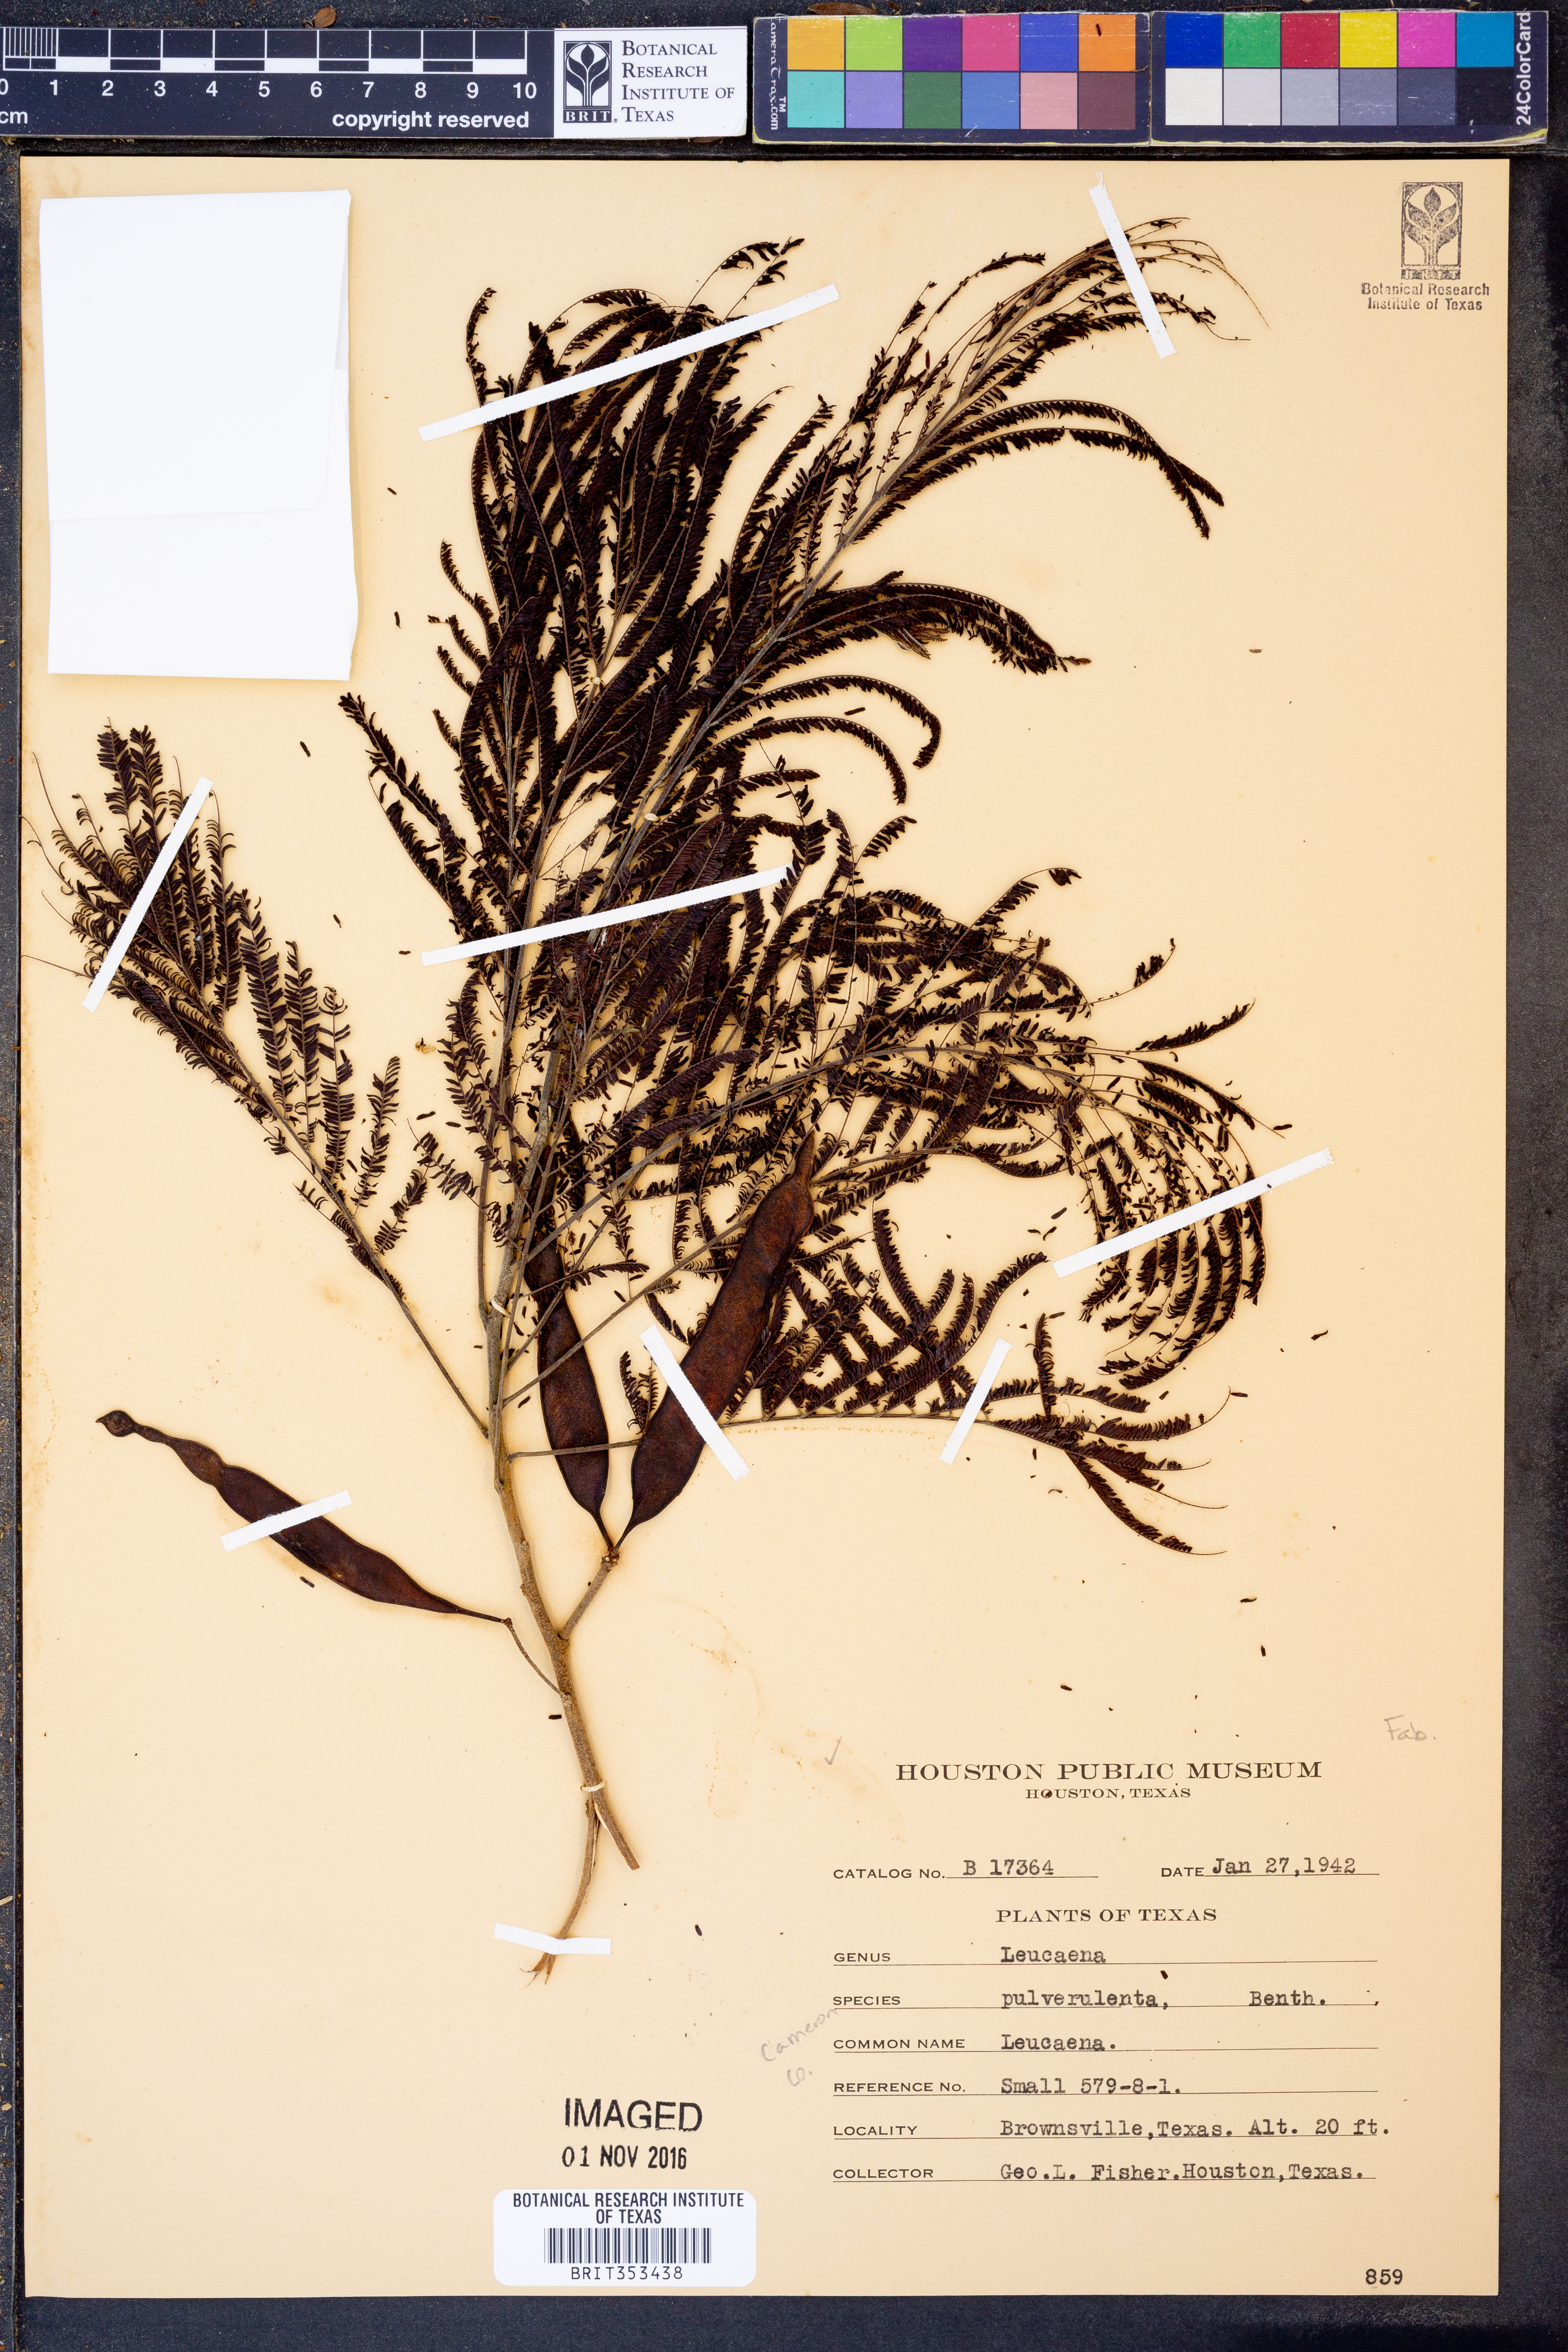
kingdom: Plantae
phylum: Tracheophyta
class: Magnoliopsida
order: Fabales
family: Fabaceae
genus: Leucaena
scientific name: Leucaena pulverulenta
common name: Great leadtree
